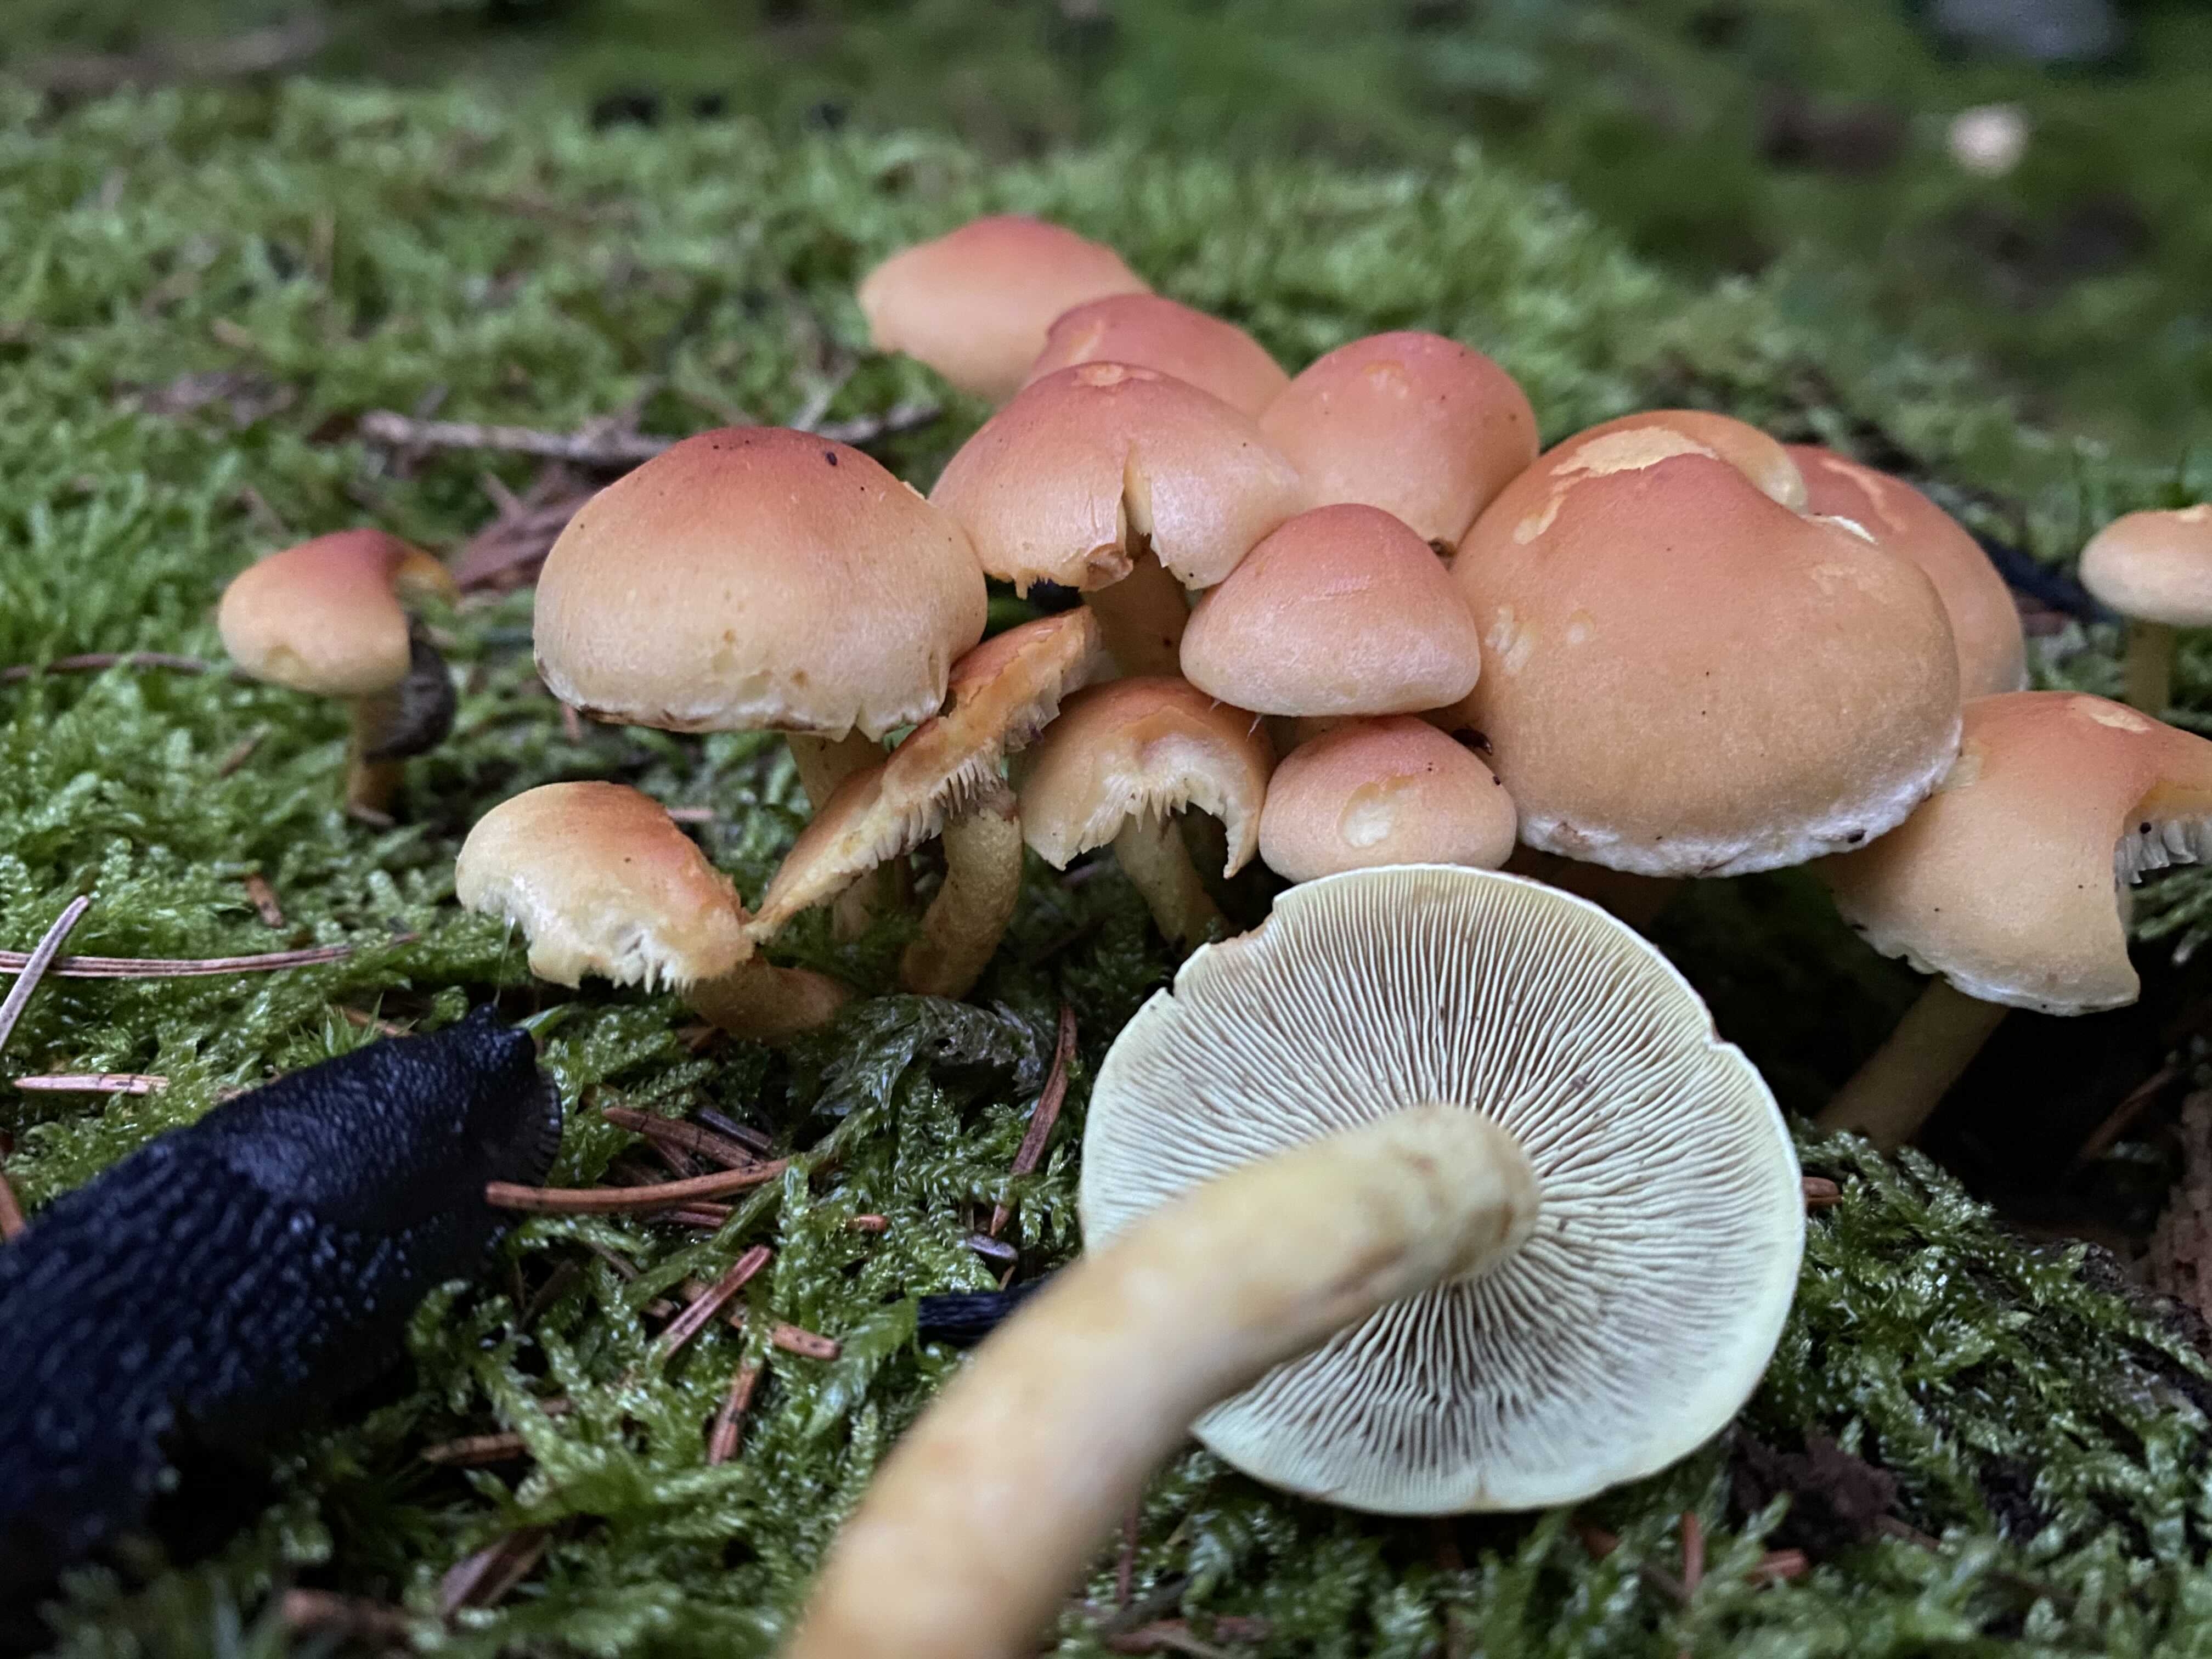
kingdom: Fungi
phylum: Basidiomycota
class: Agaricomycetes
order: Agaricales
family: Strophariaceae
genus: Hypholoma
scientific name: Hypholoma fasciculare
